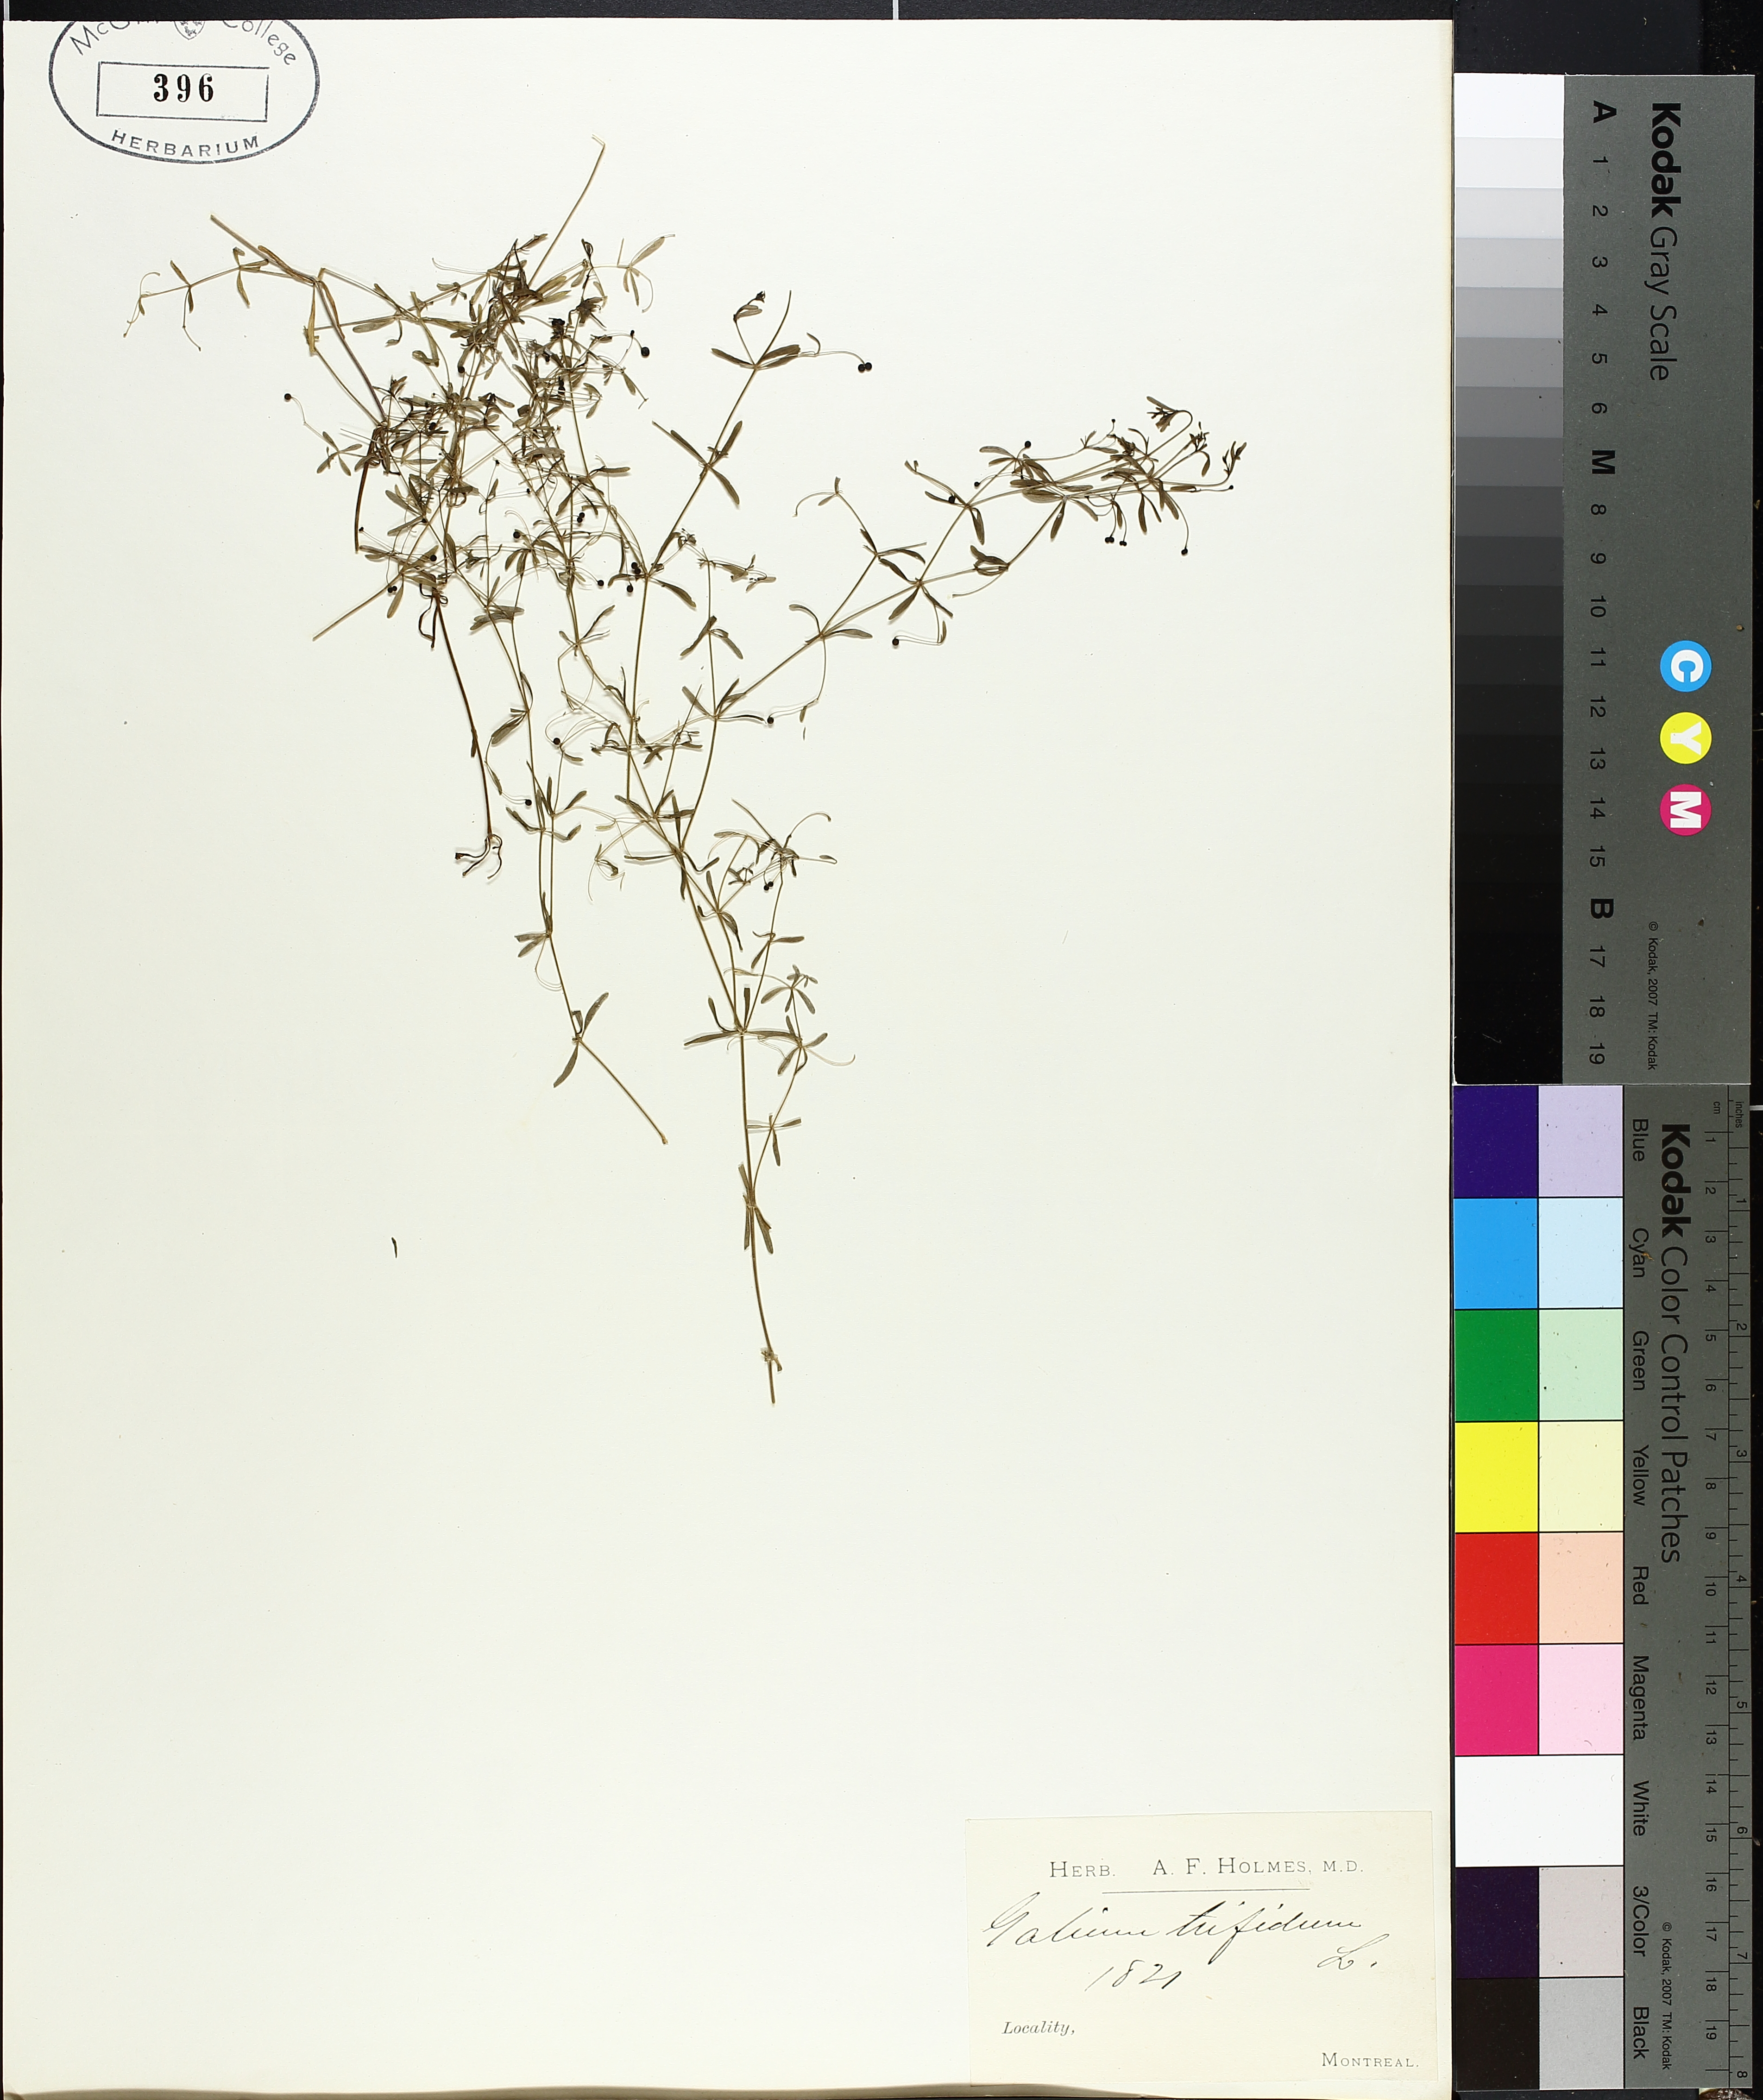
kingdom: Plantae
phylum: Tracheophyta
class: Magnoliopsida
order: Gentianales
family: Rubiaceae
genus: Galium
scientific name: Galium trifidum
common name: Small bedstraw
